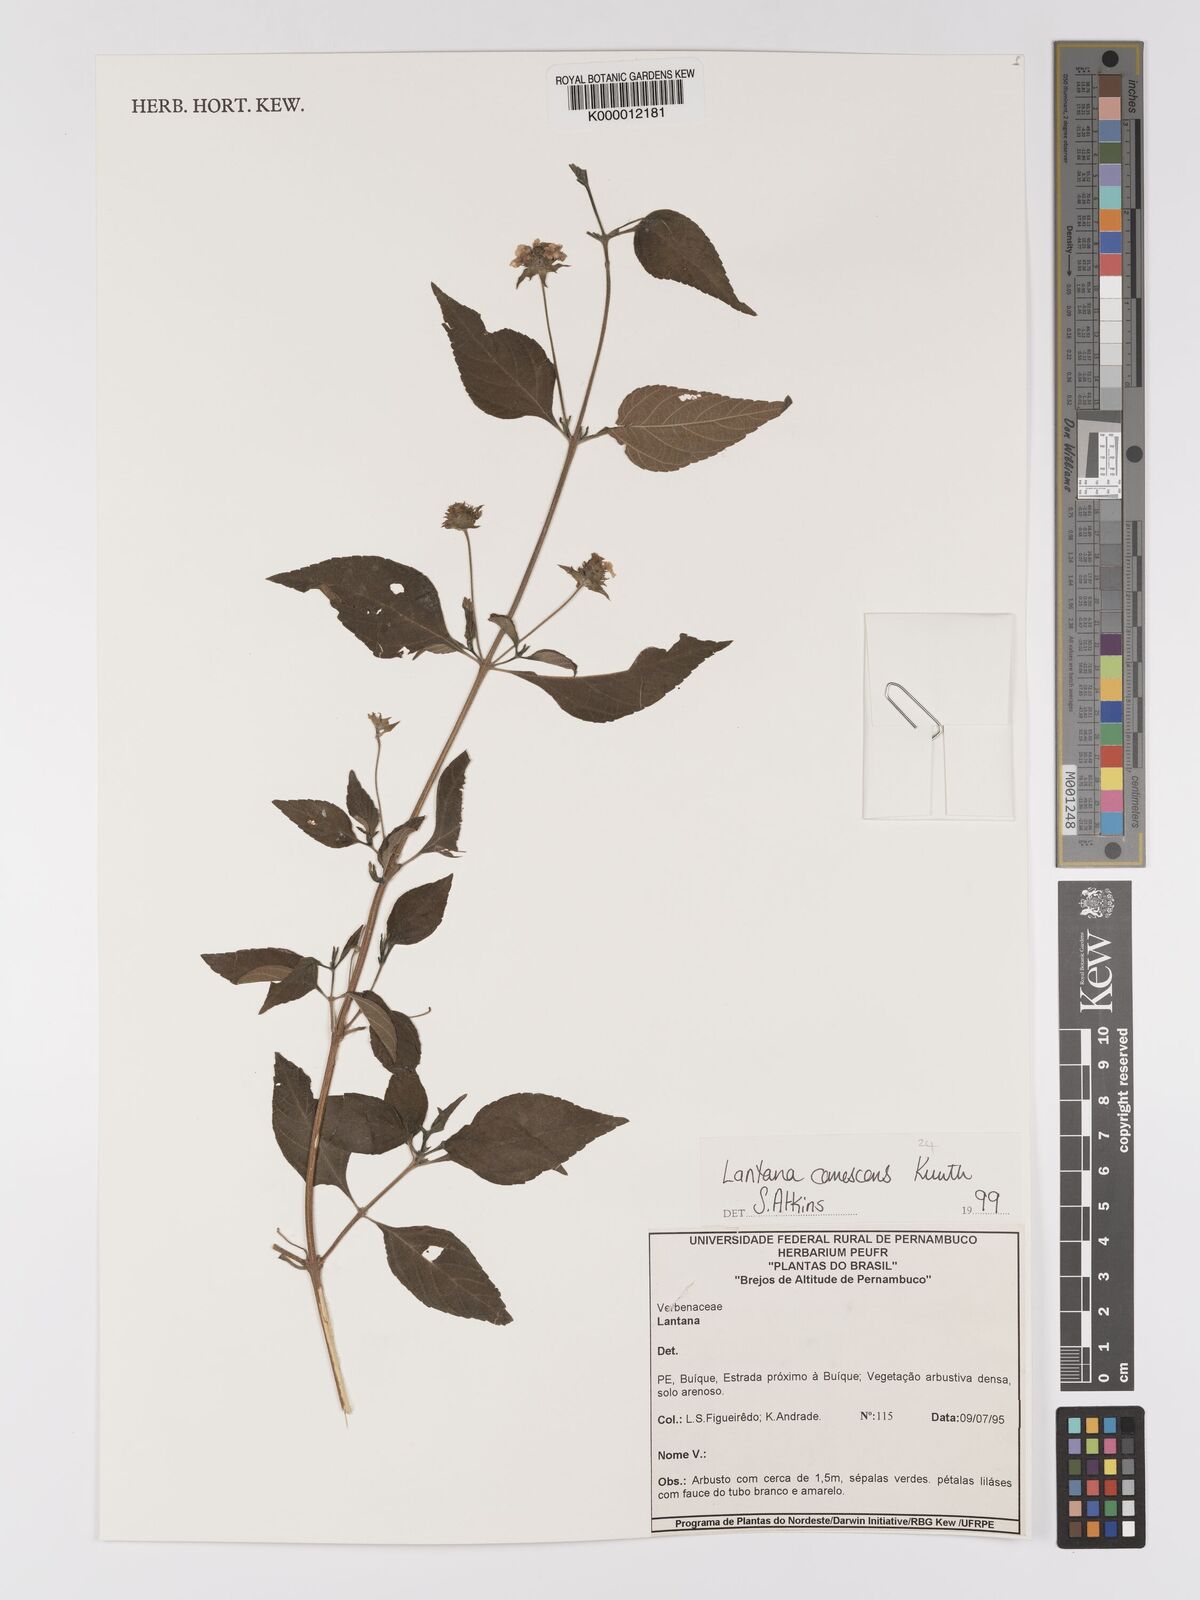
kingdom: Plantae
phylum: Tracheophyta
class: Magnoliopsida
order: Lamiales
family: Verbenaceae
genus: Lantana
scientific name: Lantana canescens
